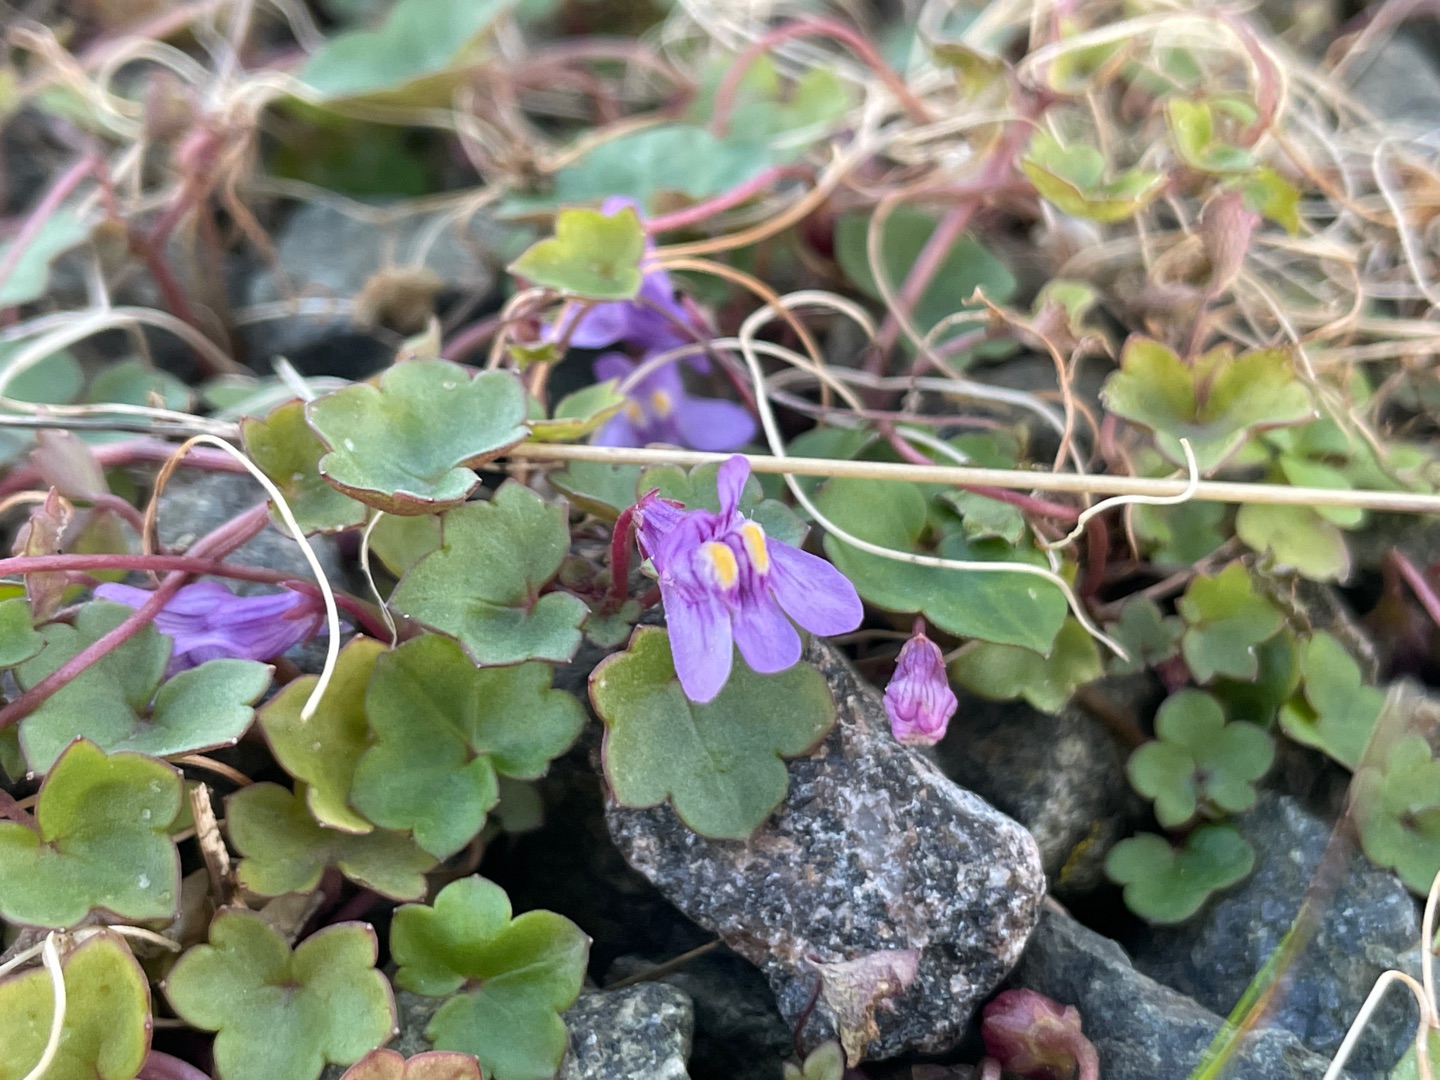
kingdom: Plantae
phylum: Tracheophyta
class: Magnoliopsida
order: Lamiales
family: Plantaginaceae
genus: Cymbalaria
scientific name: Cymbalaria muralis
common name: Vedbend-torskemund
